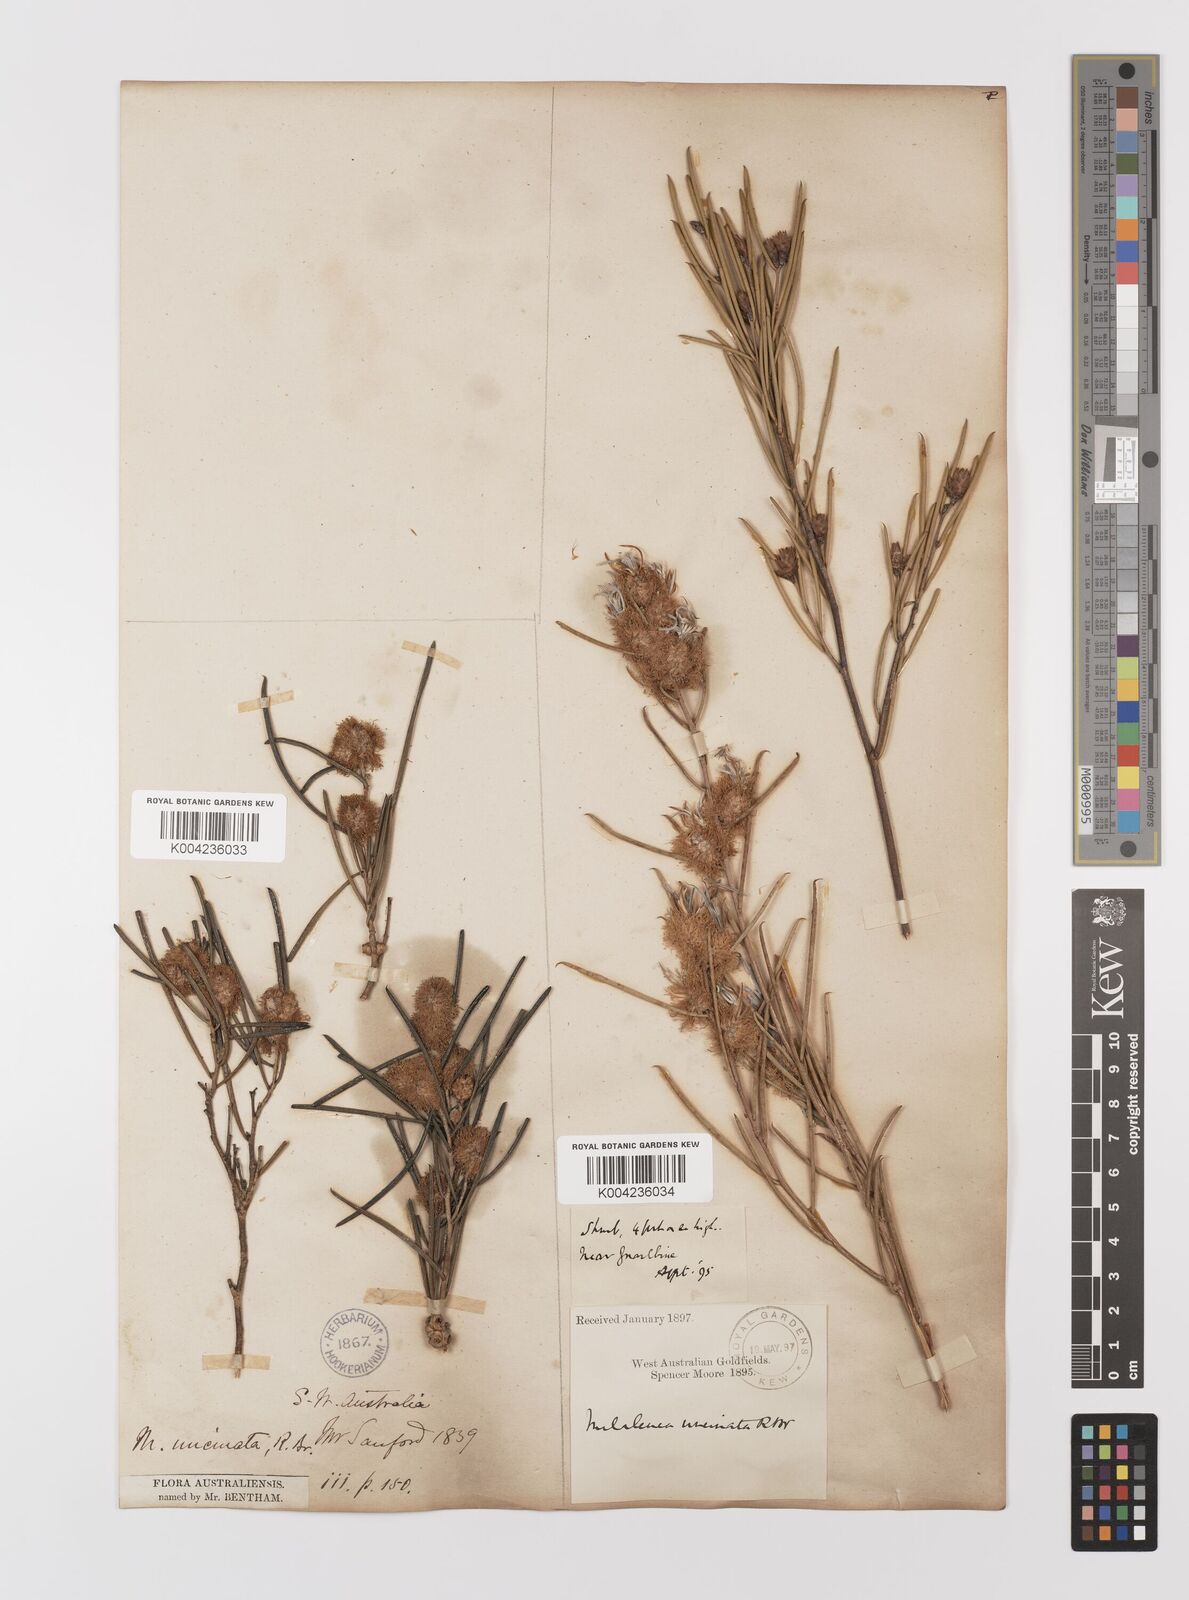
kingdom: Plantae
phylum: Tracheophyta
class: Magnoliopsida
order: Myrtales
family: Myrtaceae
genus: Melaleuca
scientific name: Melaleuca uncinata
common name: Broom honey myrtle
